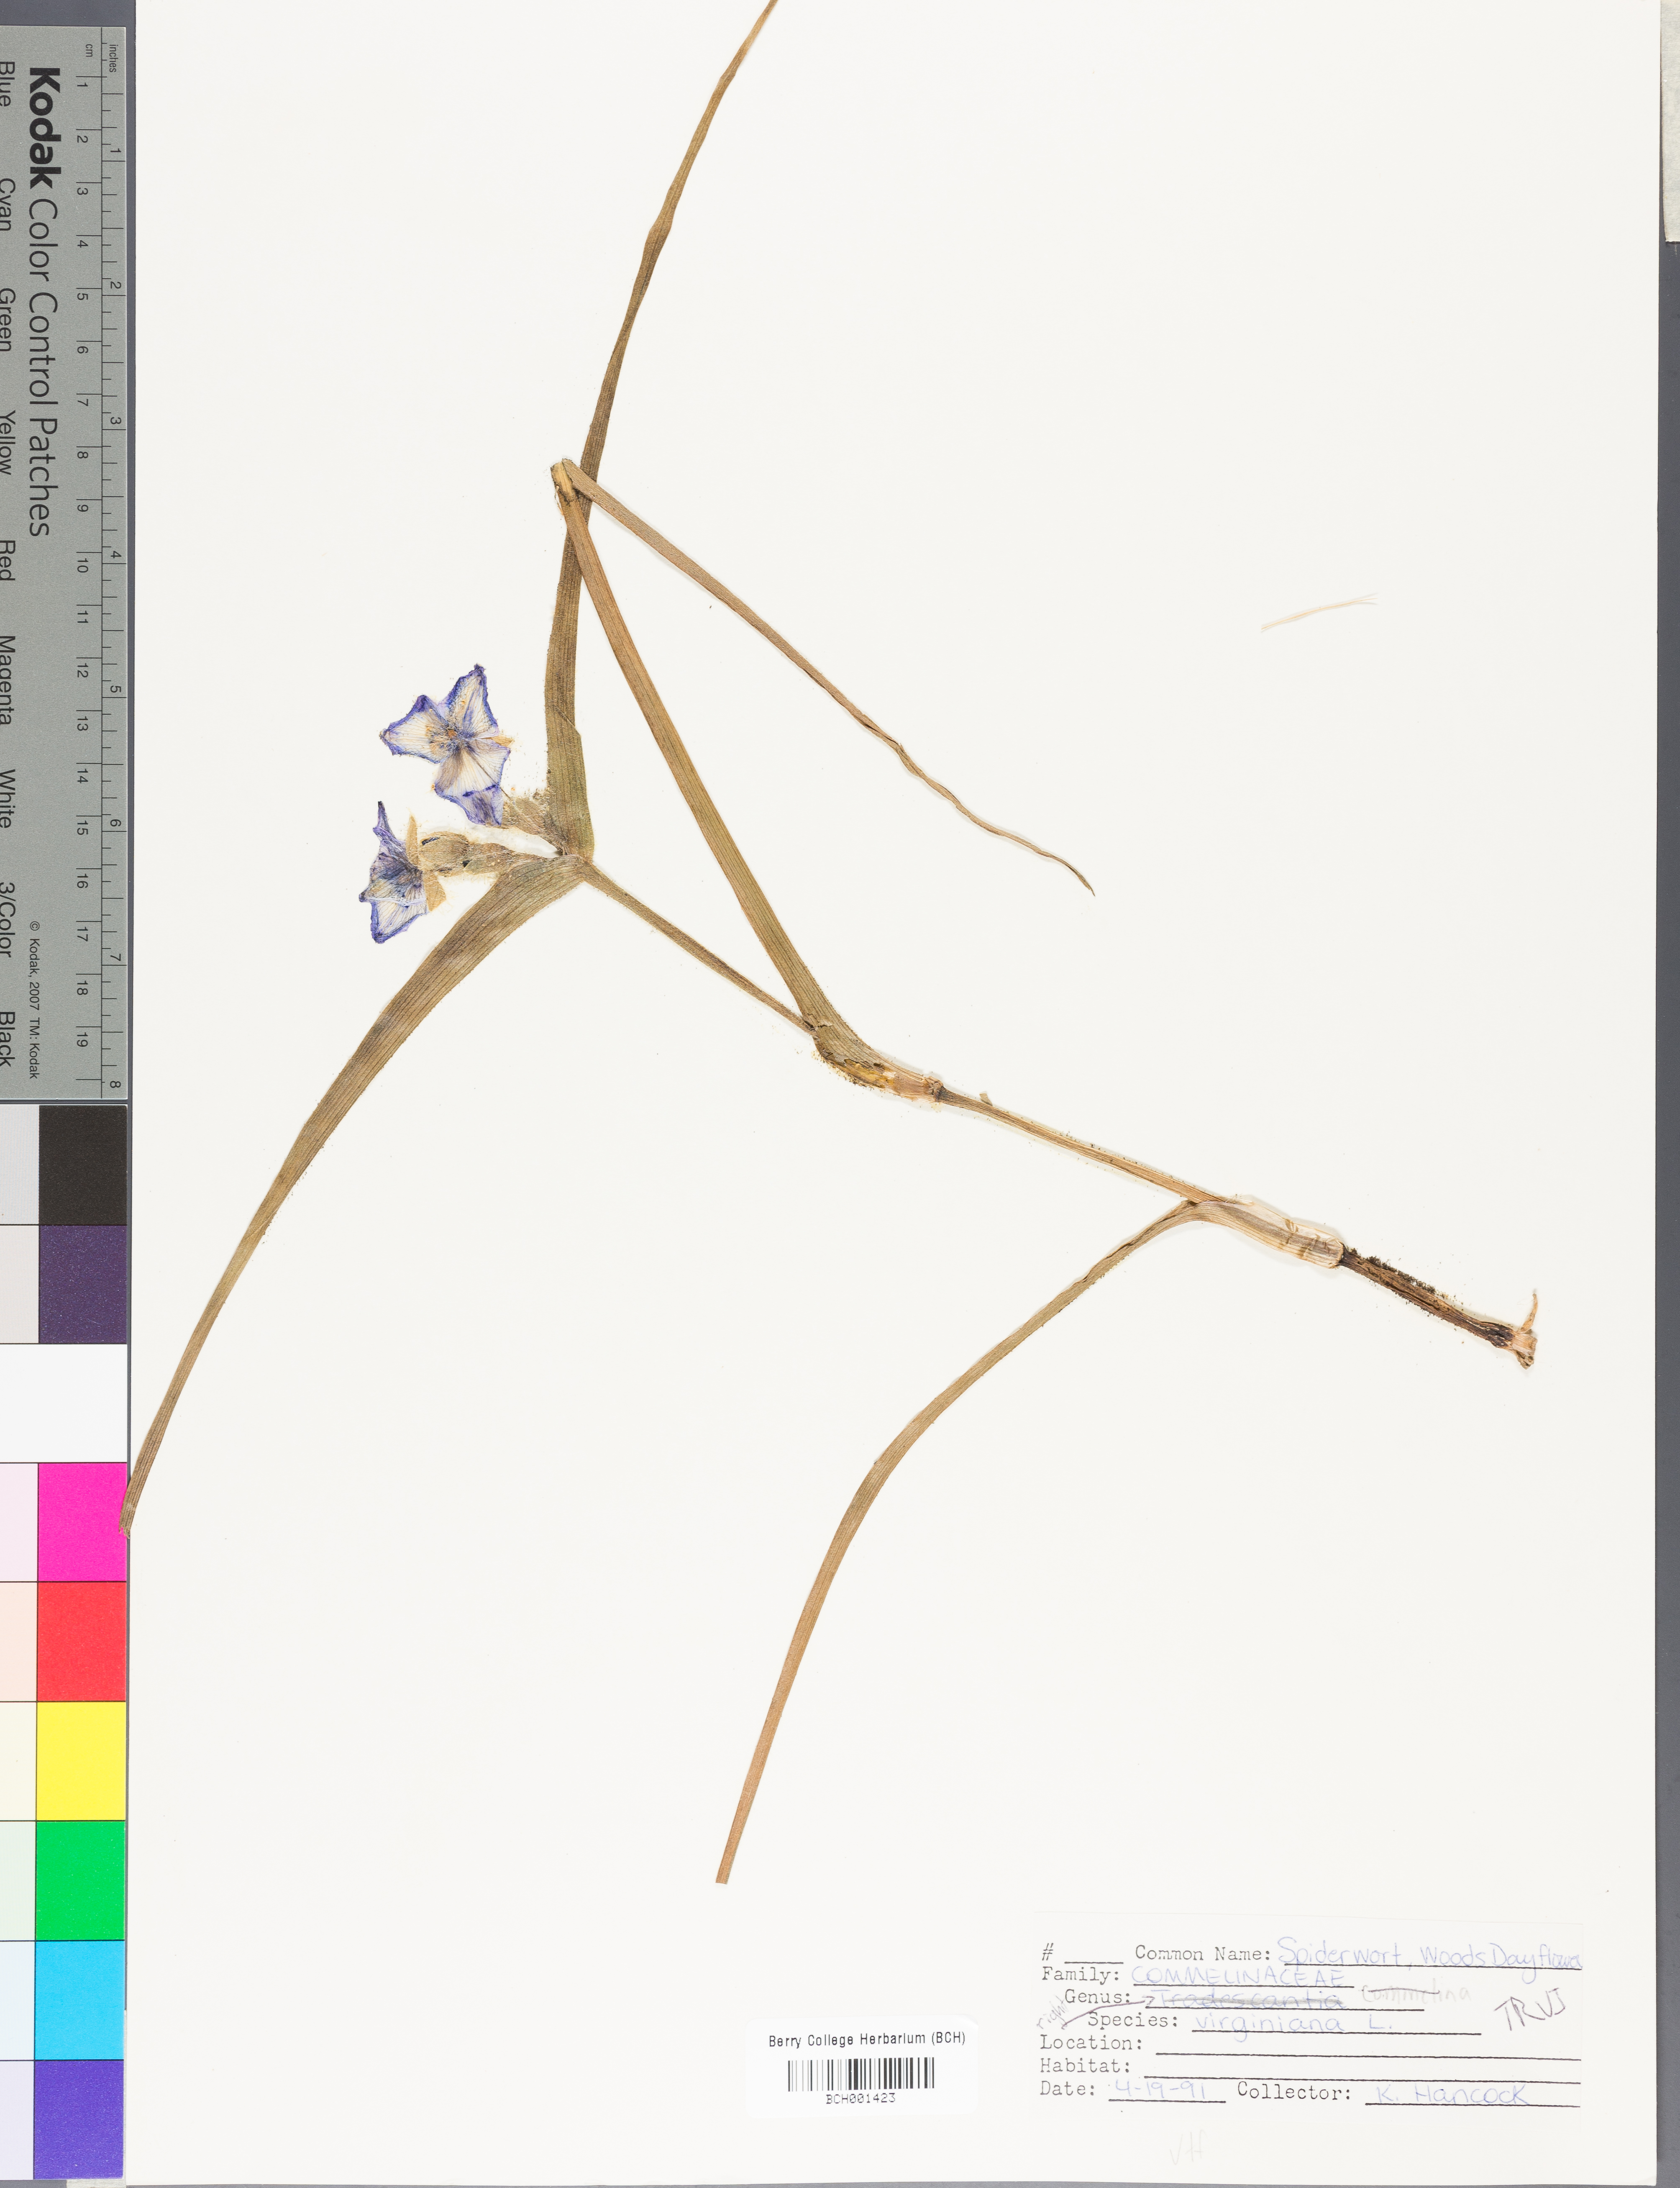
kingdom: Plantae
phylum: Tracheophyta
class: Liliopsida
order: Commelinales
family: Commelinaceae
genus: Tradescantia
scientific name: Tradescantia virginiana
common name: Spiderwort
